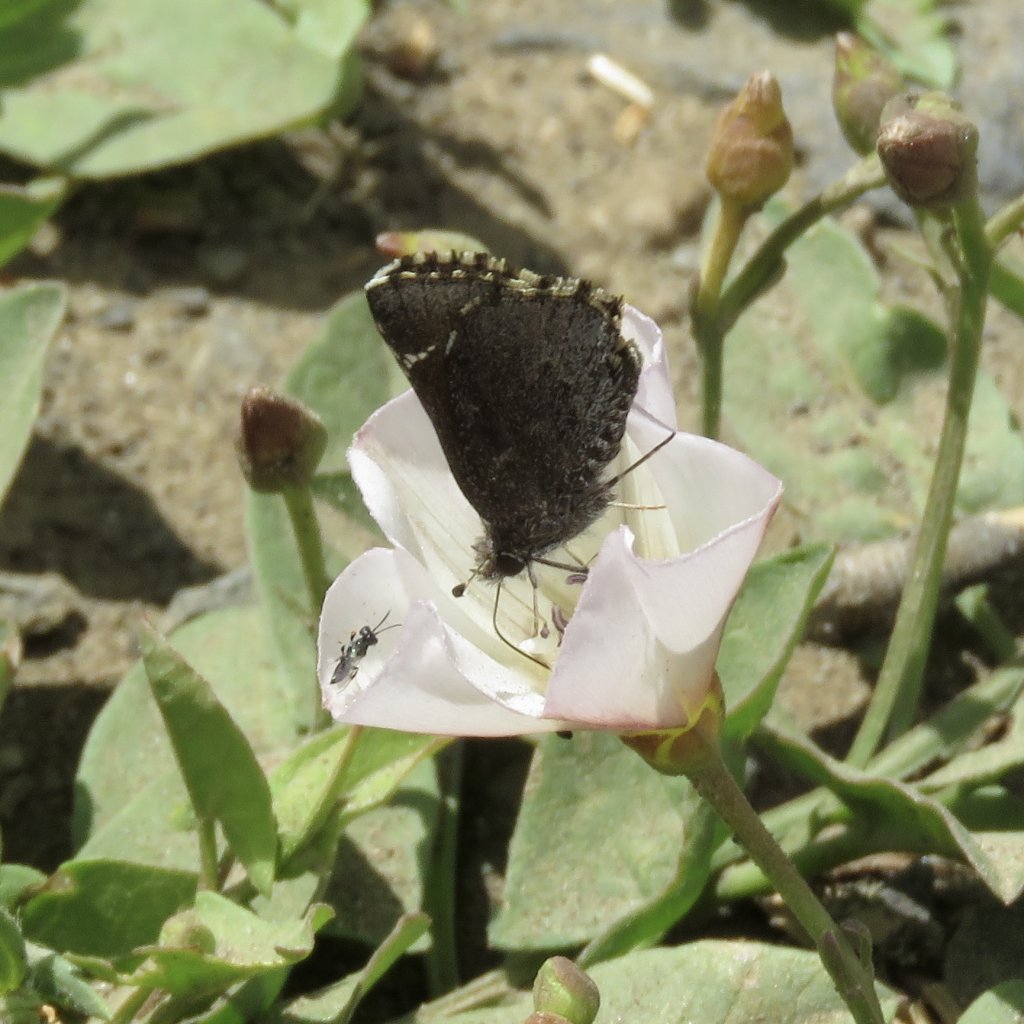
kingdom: Animalia
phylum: Arthropoda
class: Insecta
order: Lepidoptera
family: Hesperiidae
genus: Mastor
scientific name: Mastor vialis
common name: Common Roadside-Skipper
